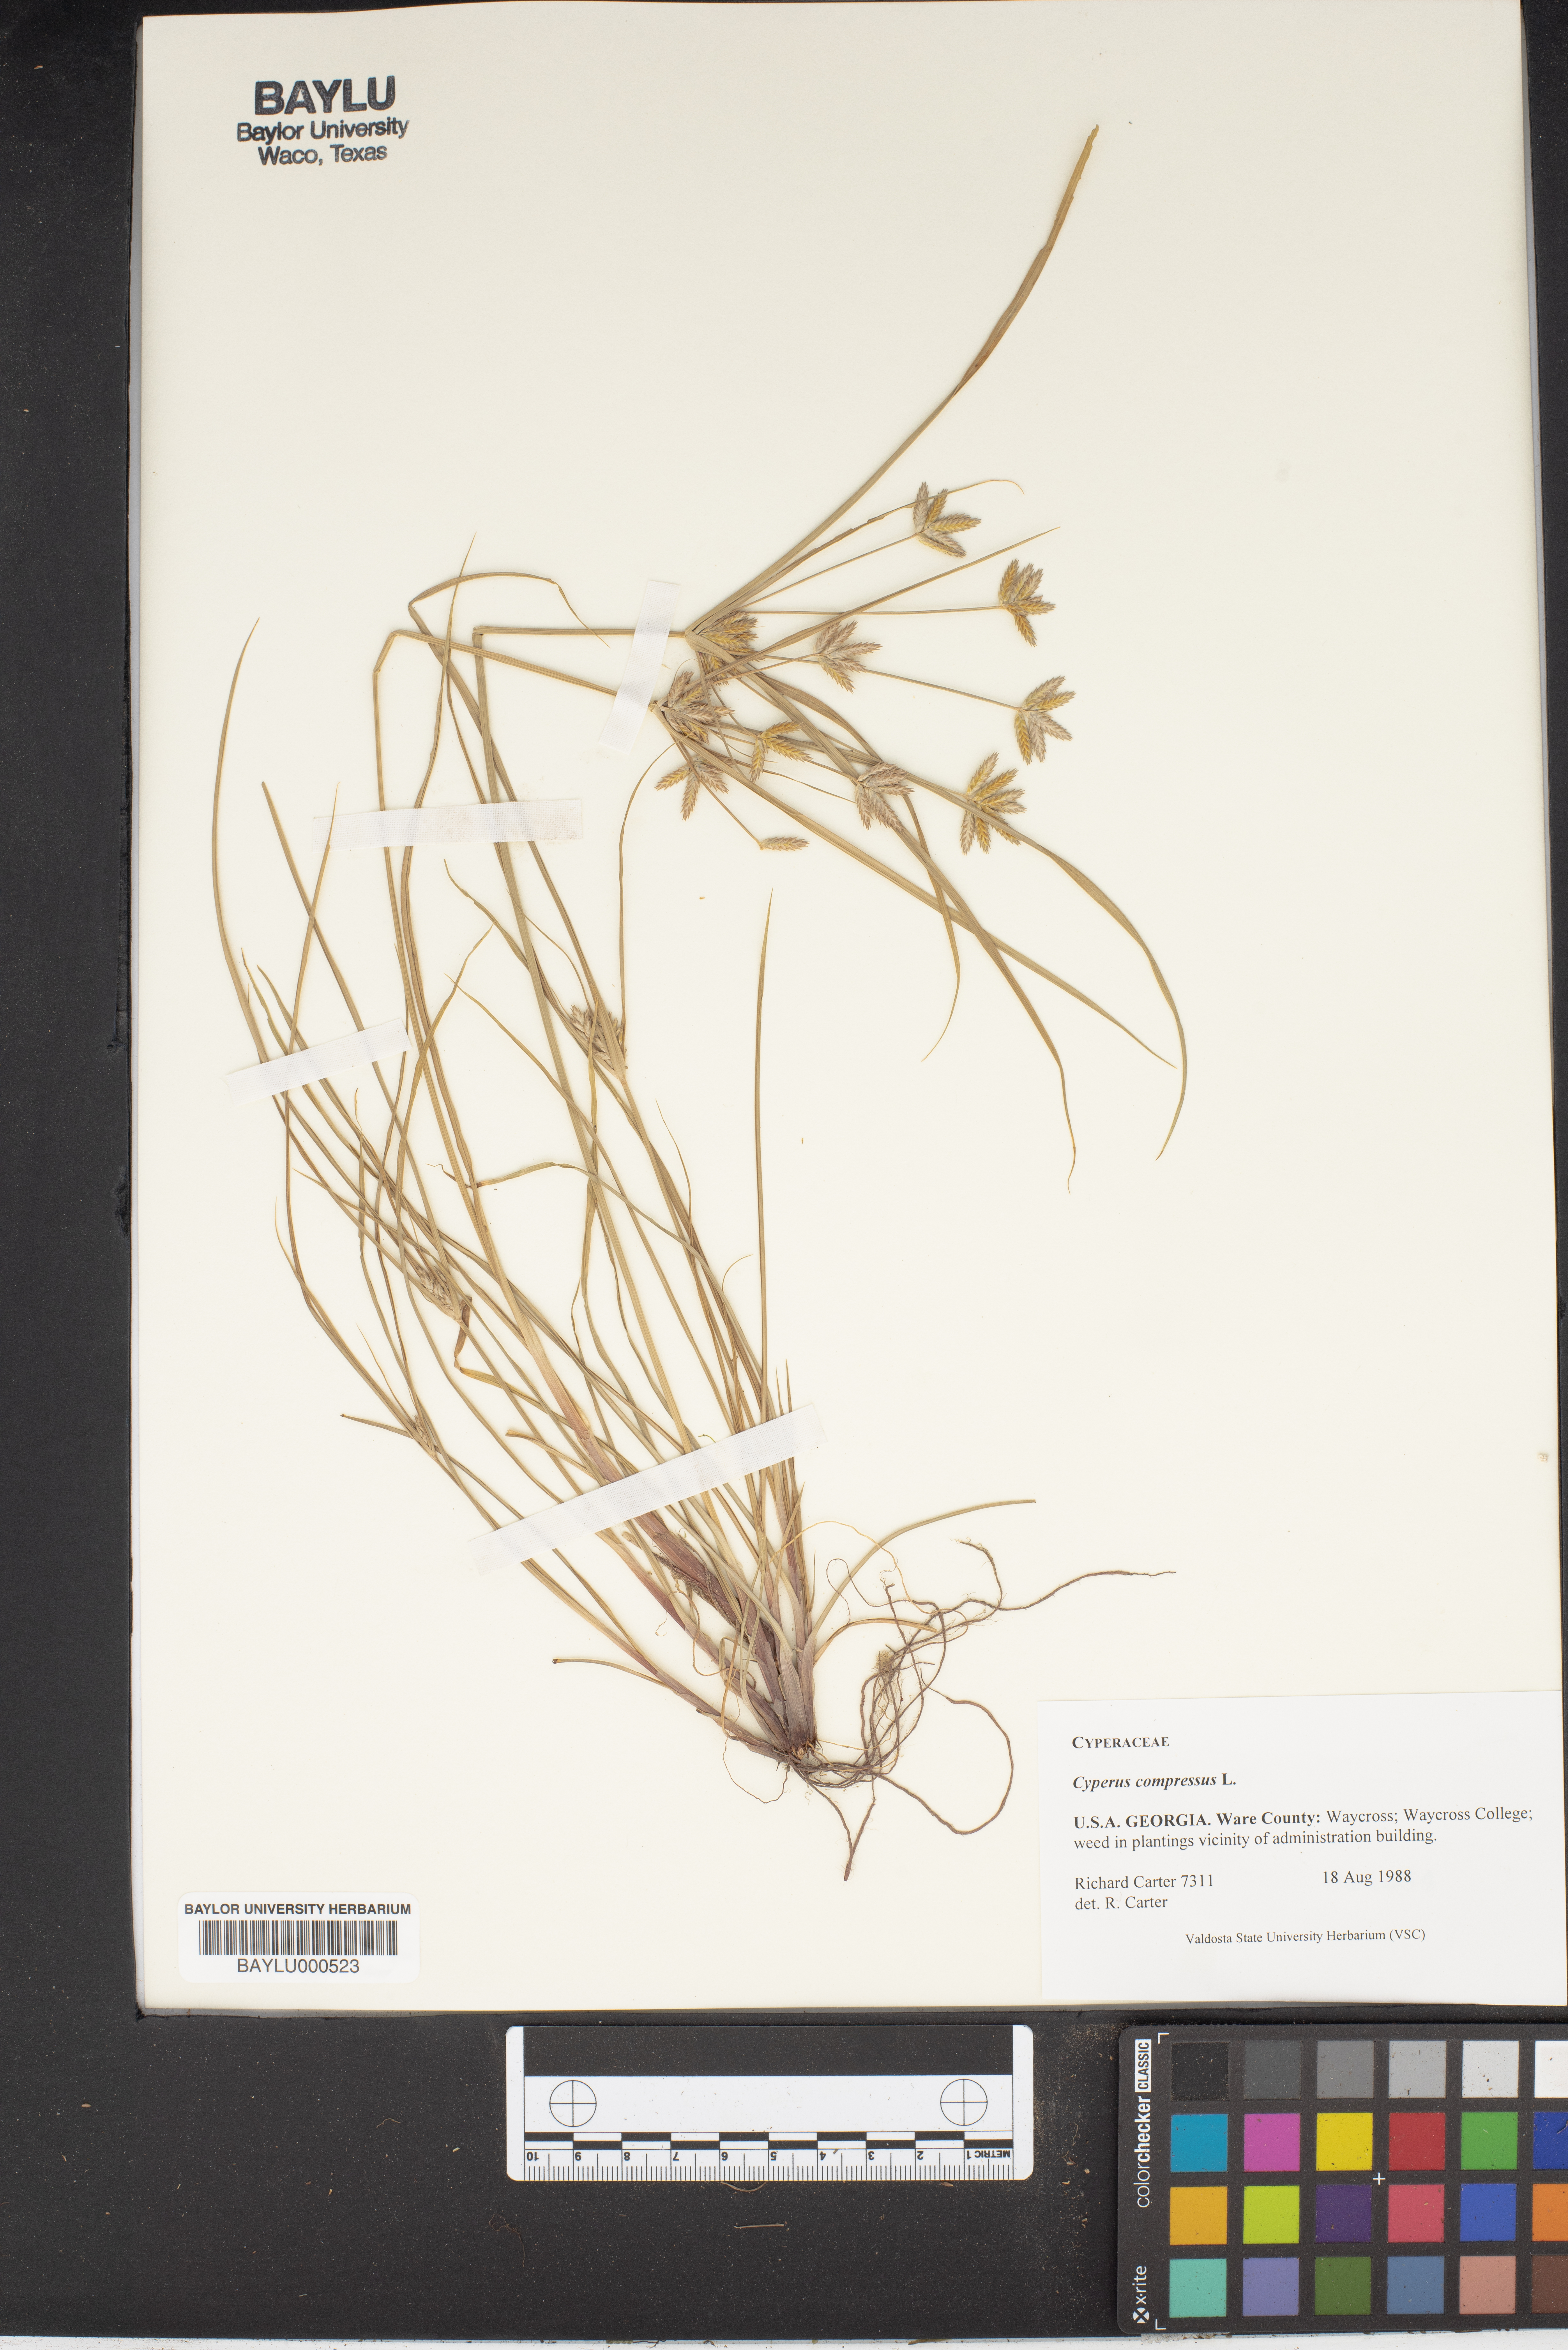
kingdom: Plantae
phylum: Tracheophyta
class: Liliopsida
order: Poales
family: Cyperaceae
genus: Cyperus
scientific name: Cyperus compressus
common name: Poorland flatsedge
